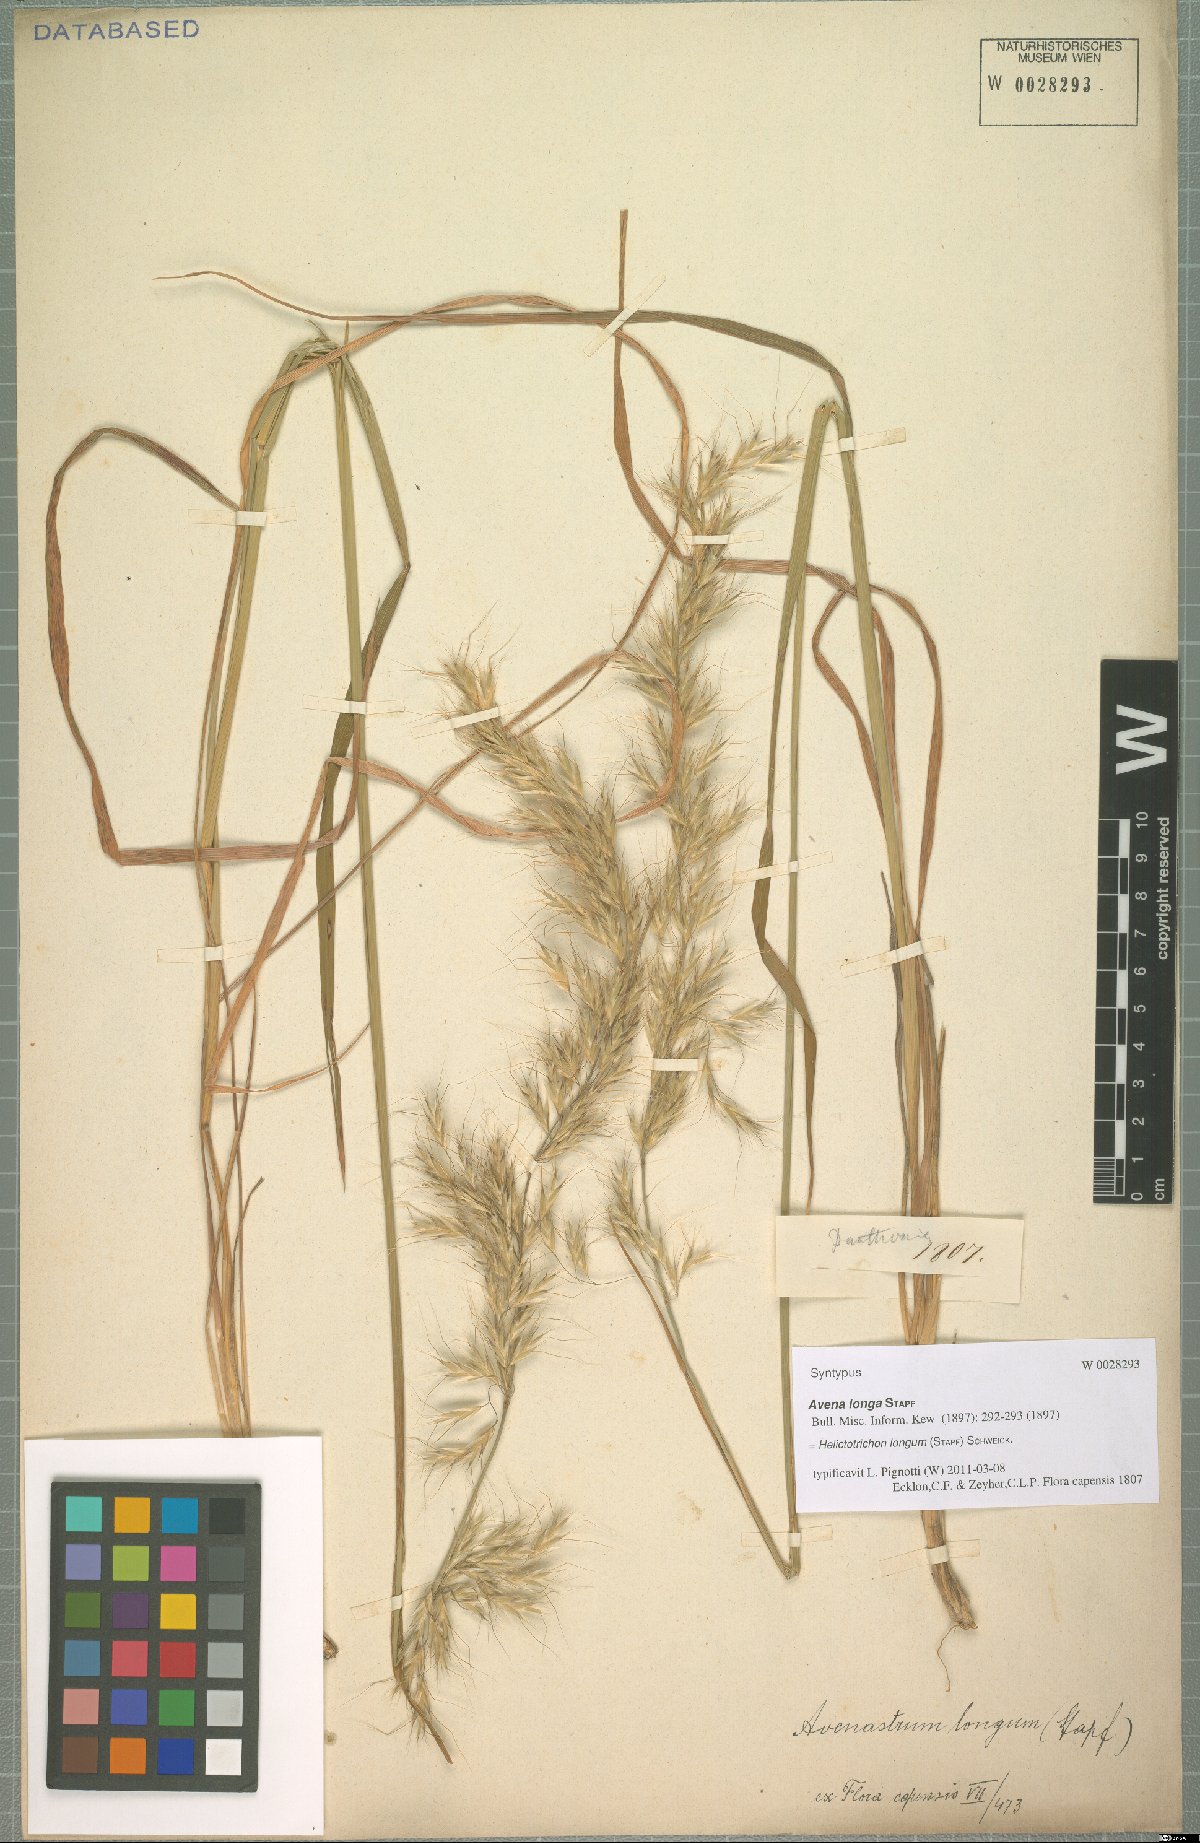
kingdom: Plantae
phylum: Tracheophyta
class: Liliopsida
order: Poales
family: Poaceae
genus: Trisetopsis
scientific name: Trisetopsis longa
